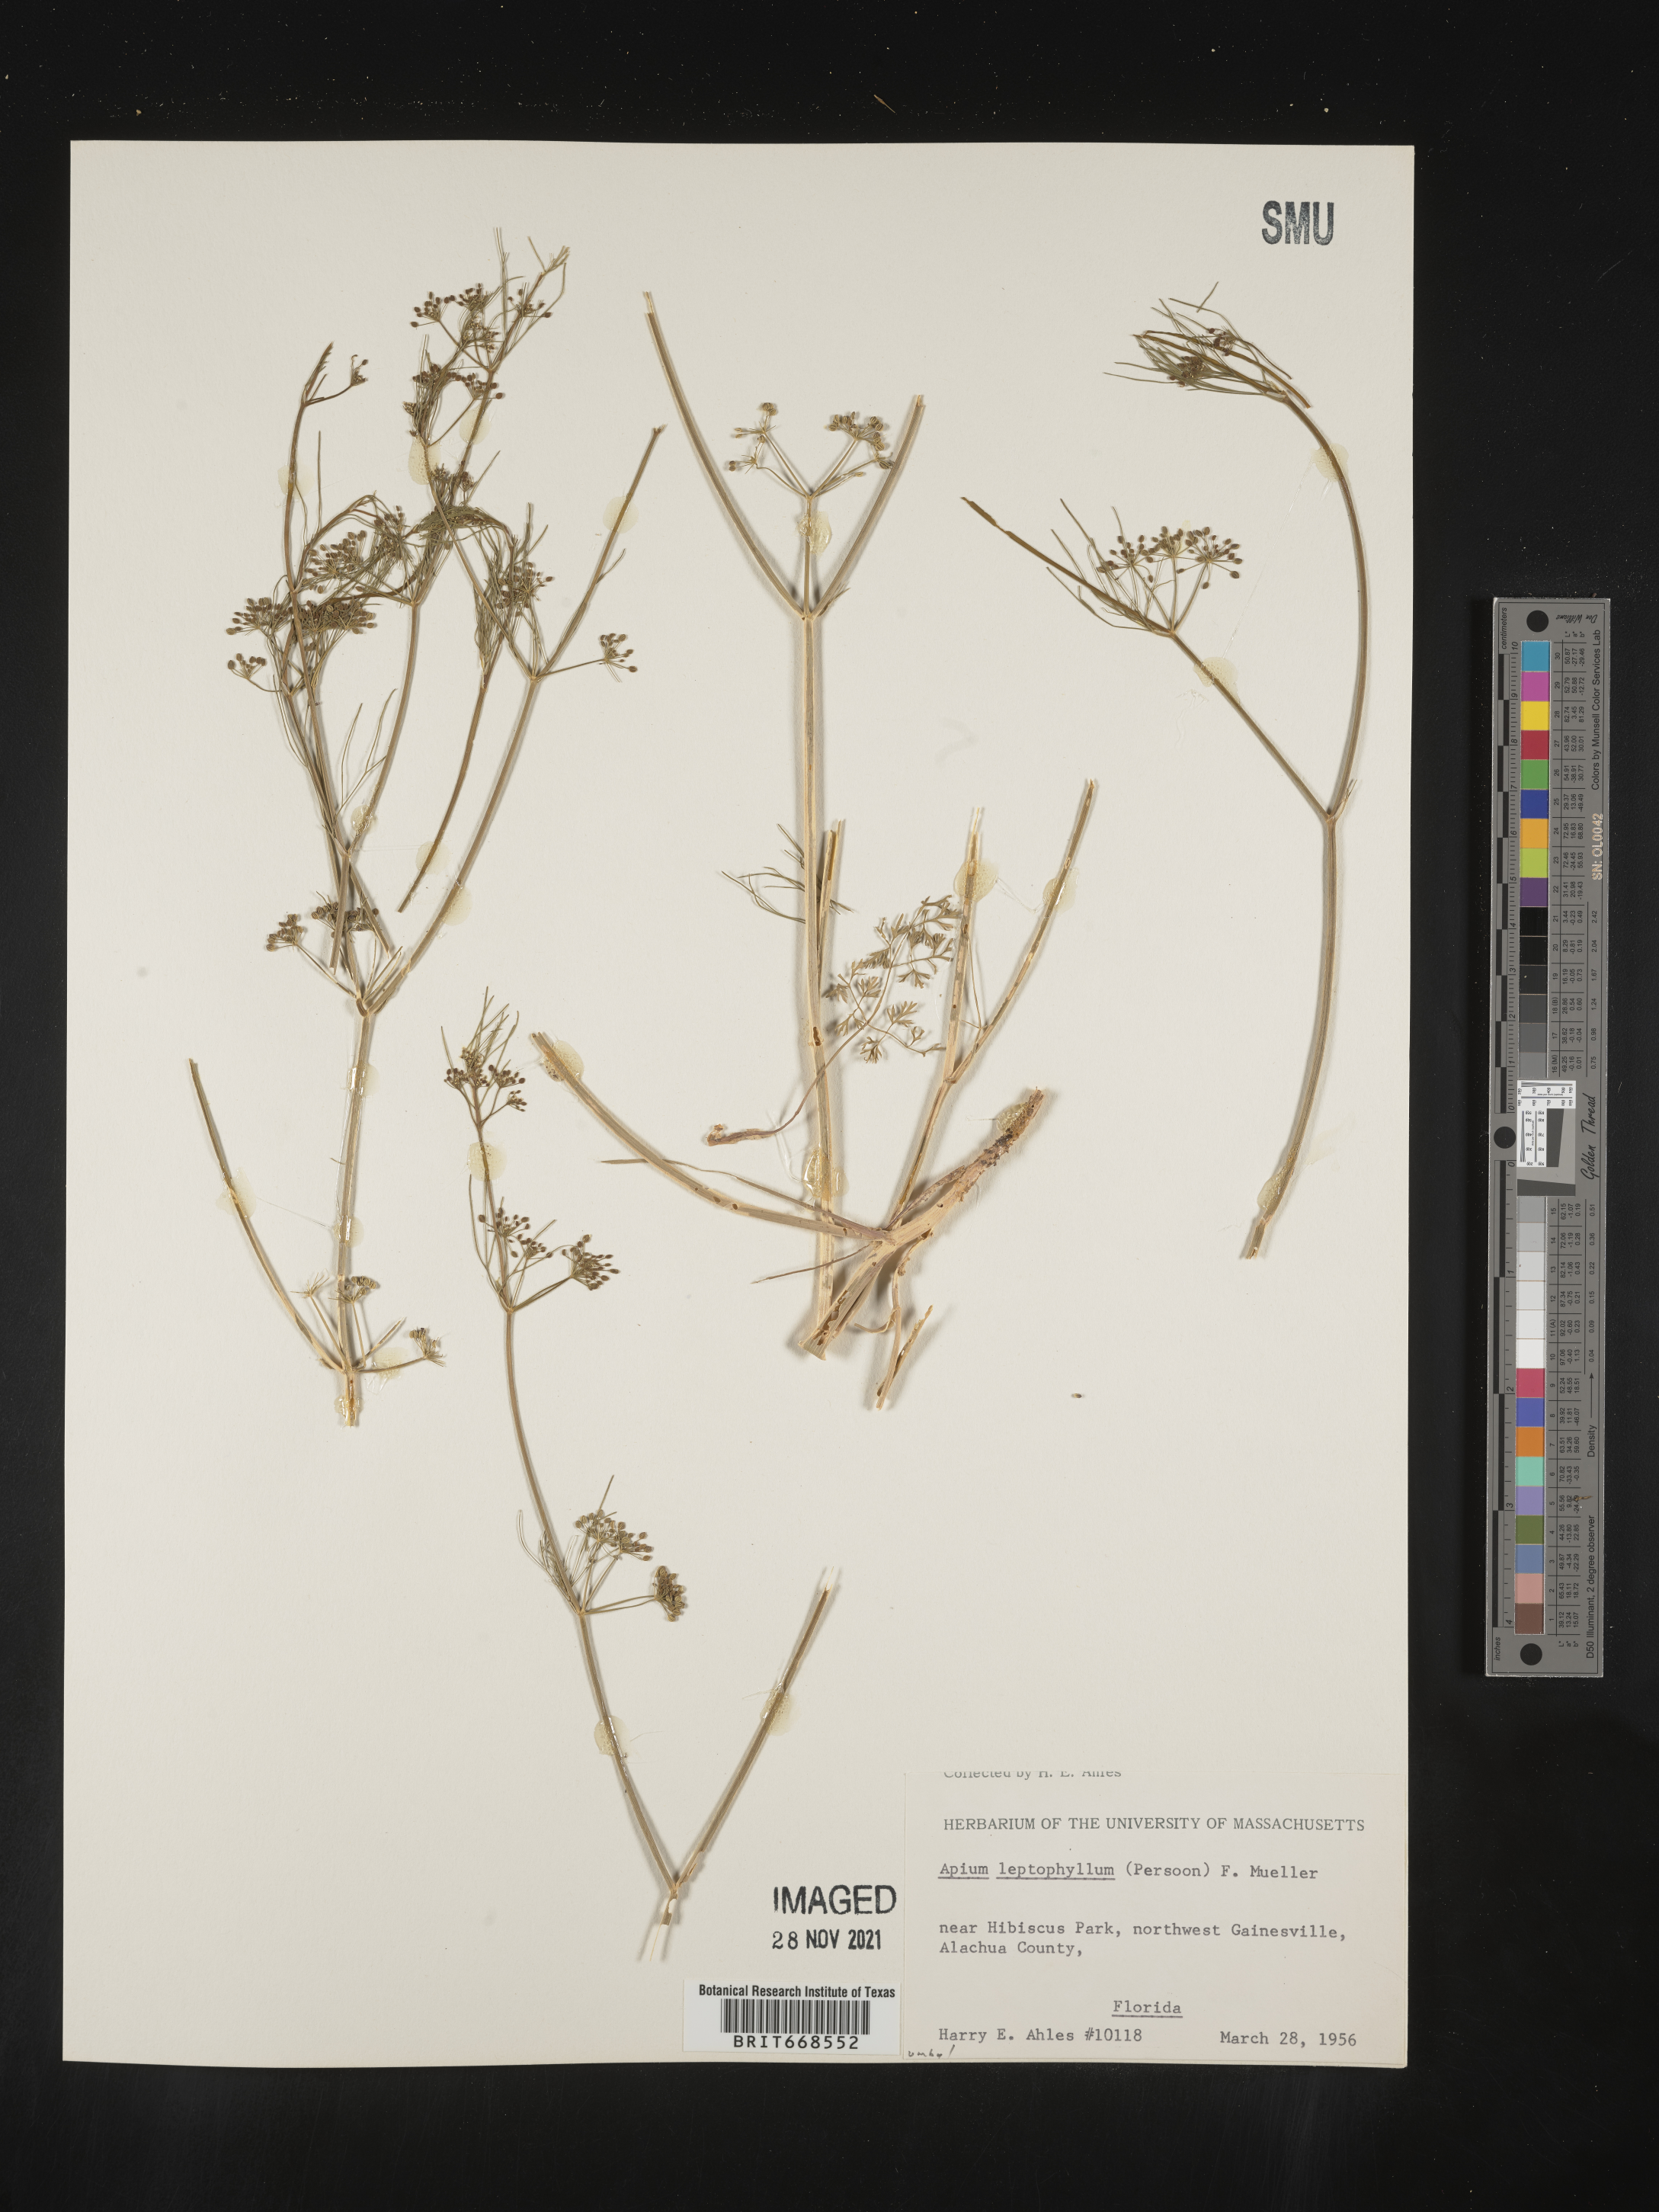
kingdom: Plantae
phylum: Tracheophyta
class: Magnoliopsida
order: Apiales
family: Apiaceae
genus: Cyclospermum
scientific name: Cyclospermum leptophyllum
